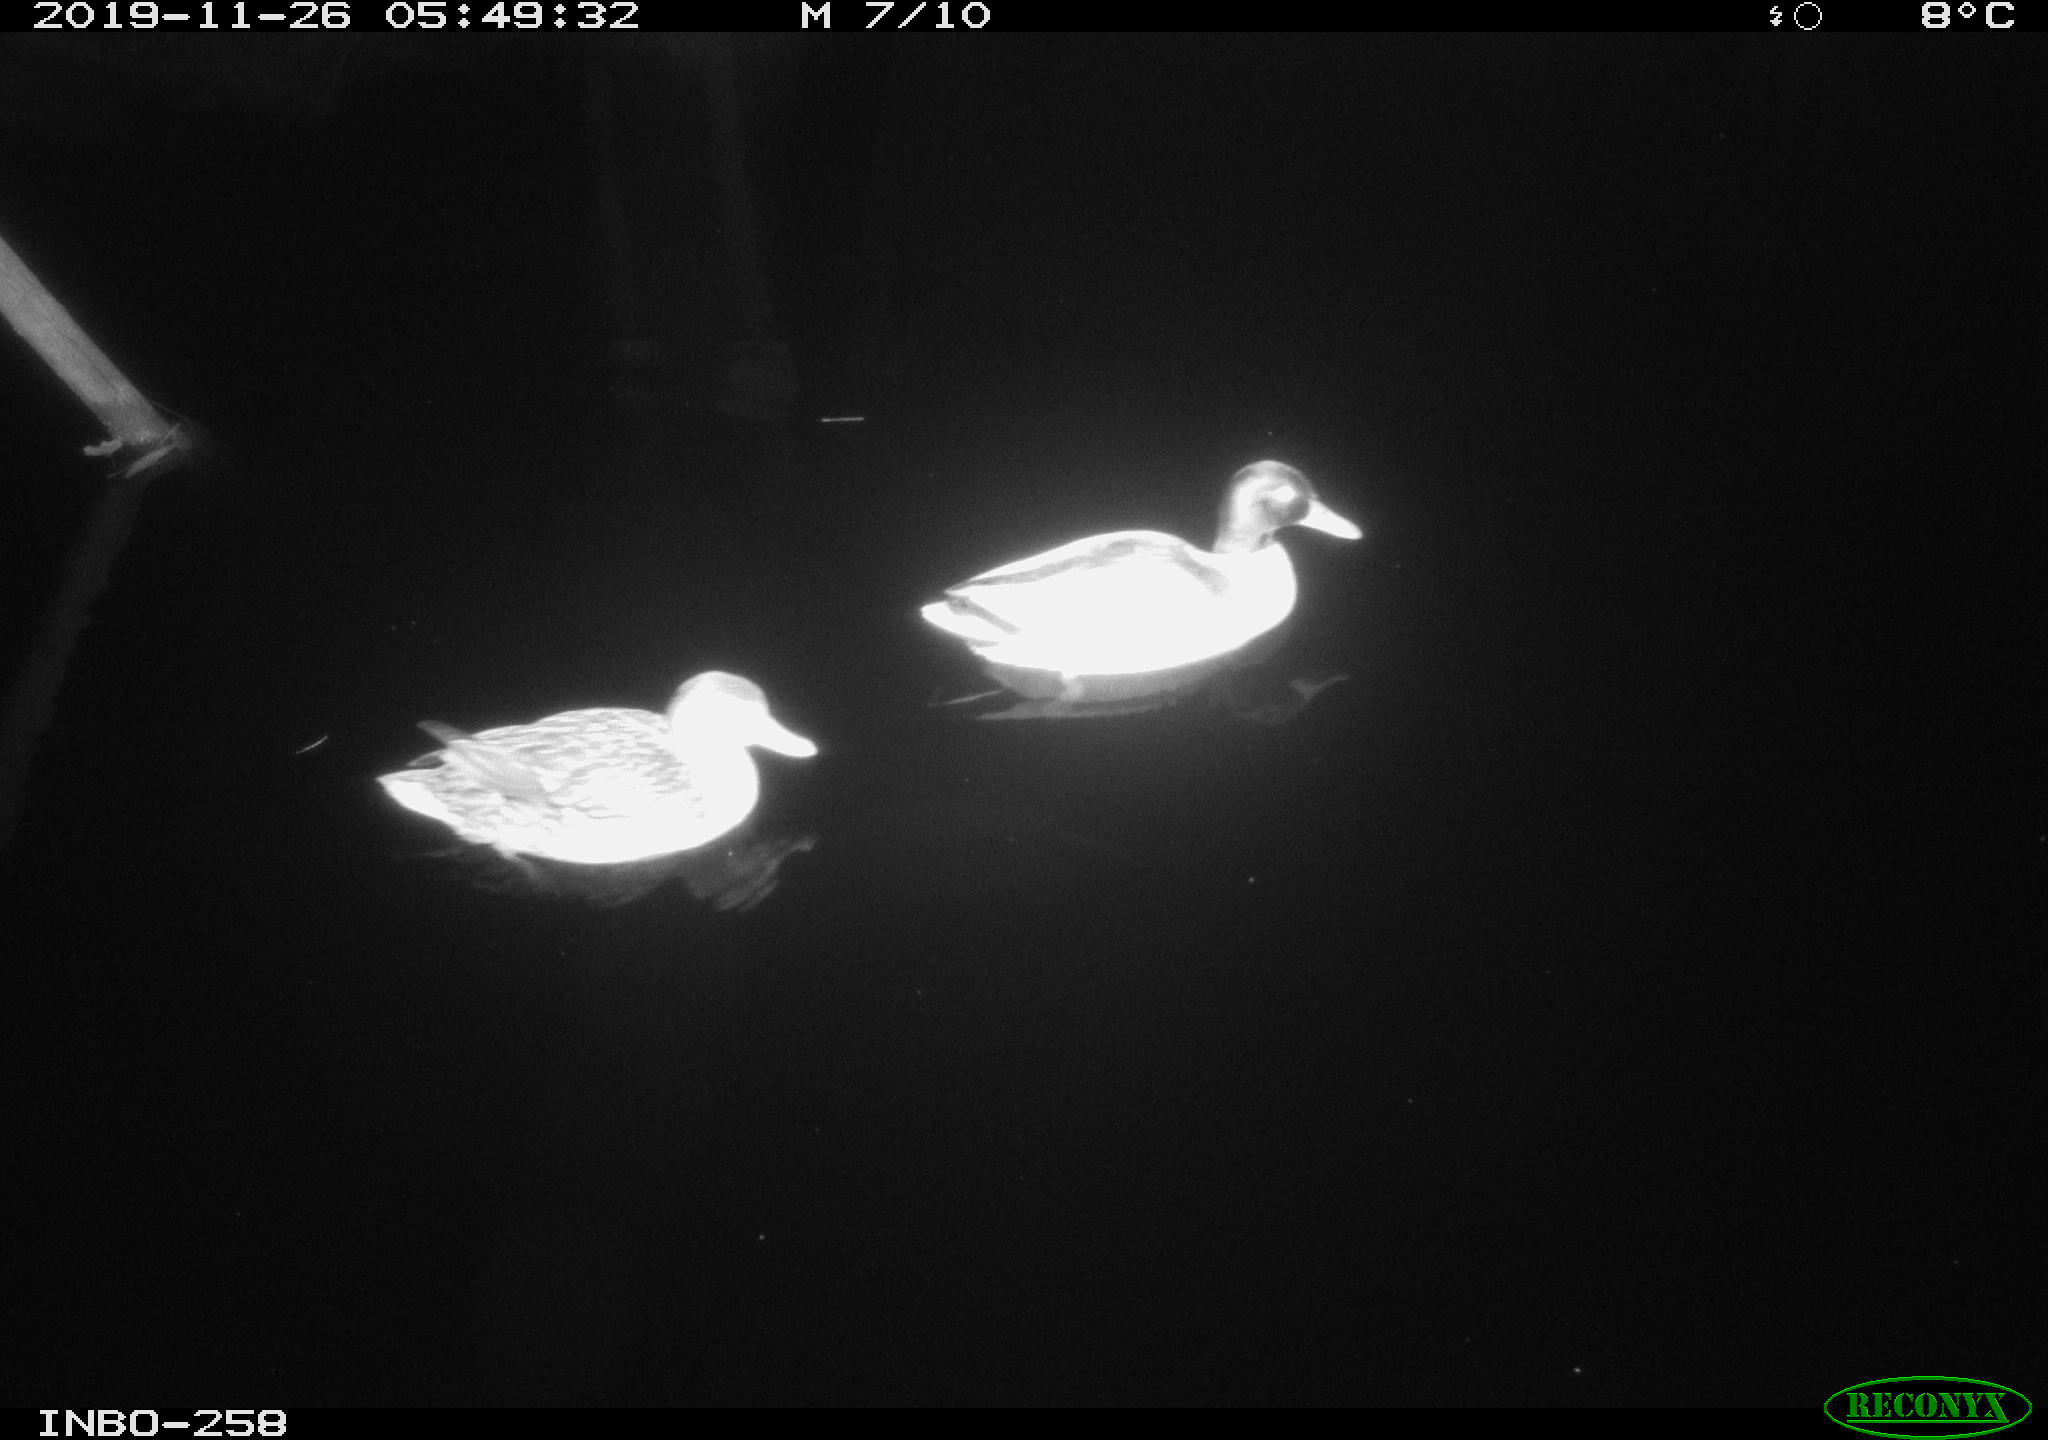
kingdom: Animalia
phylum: Chordata
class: Aves
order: Anseriformes
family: Anatidae
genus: Anas
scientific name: Anas platyrhynchos
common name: Mallard
